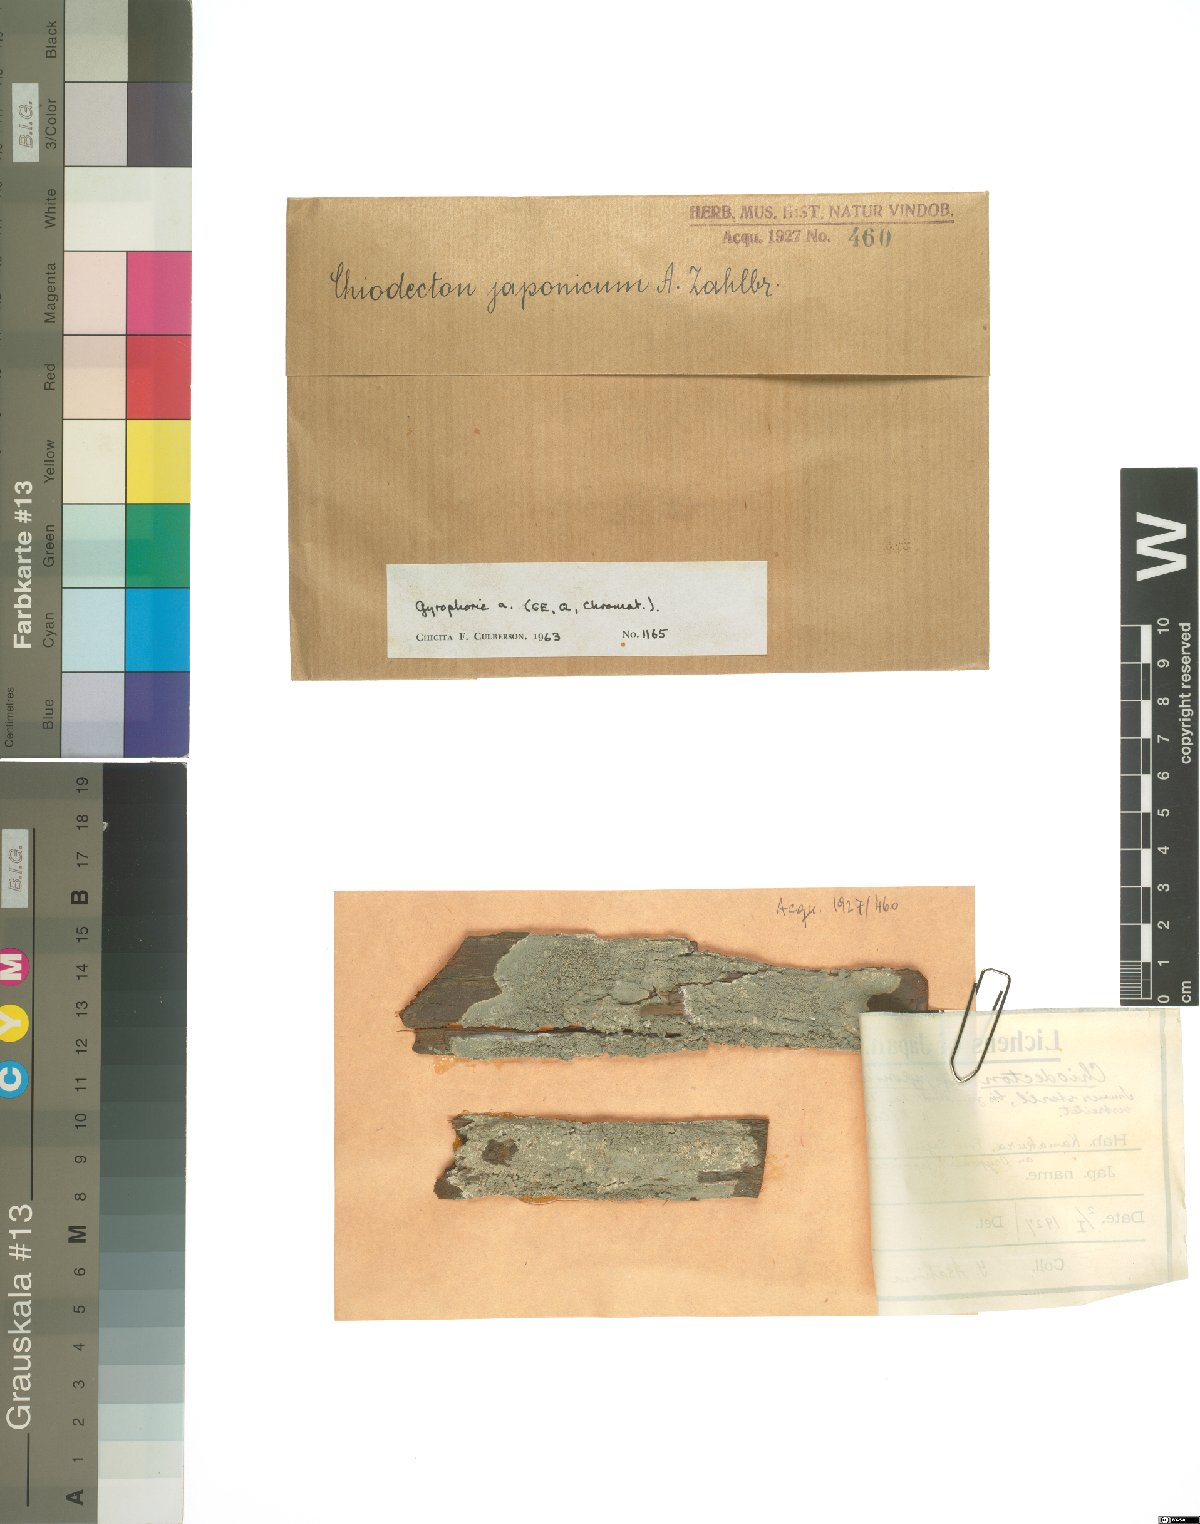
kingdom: Fungi
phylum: Ascomycota
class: Arthoniomycetes
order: Arthoniales
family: Arthoniaceae
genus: Herpothallon
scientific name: Herpothallon japonicum
